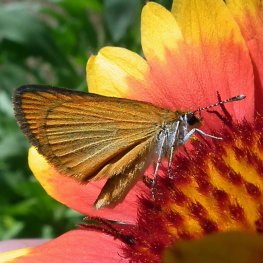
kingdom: Animalia
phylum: Arthropoda
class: Insecta
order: Lepidoptera
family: Hesperiidae
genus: Ancyloxypha
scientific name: Ancyloxypha numitor
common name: Least Skipper
